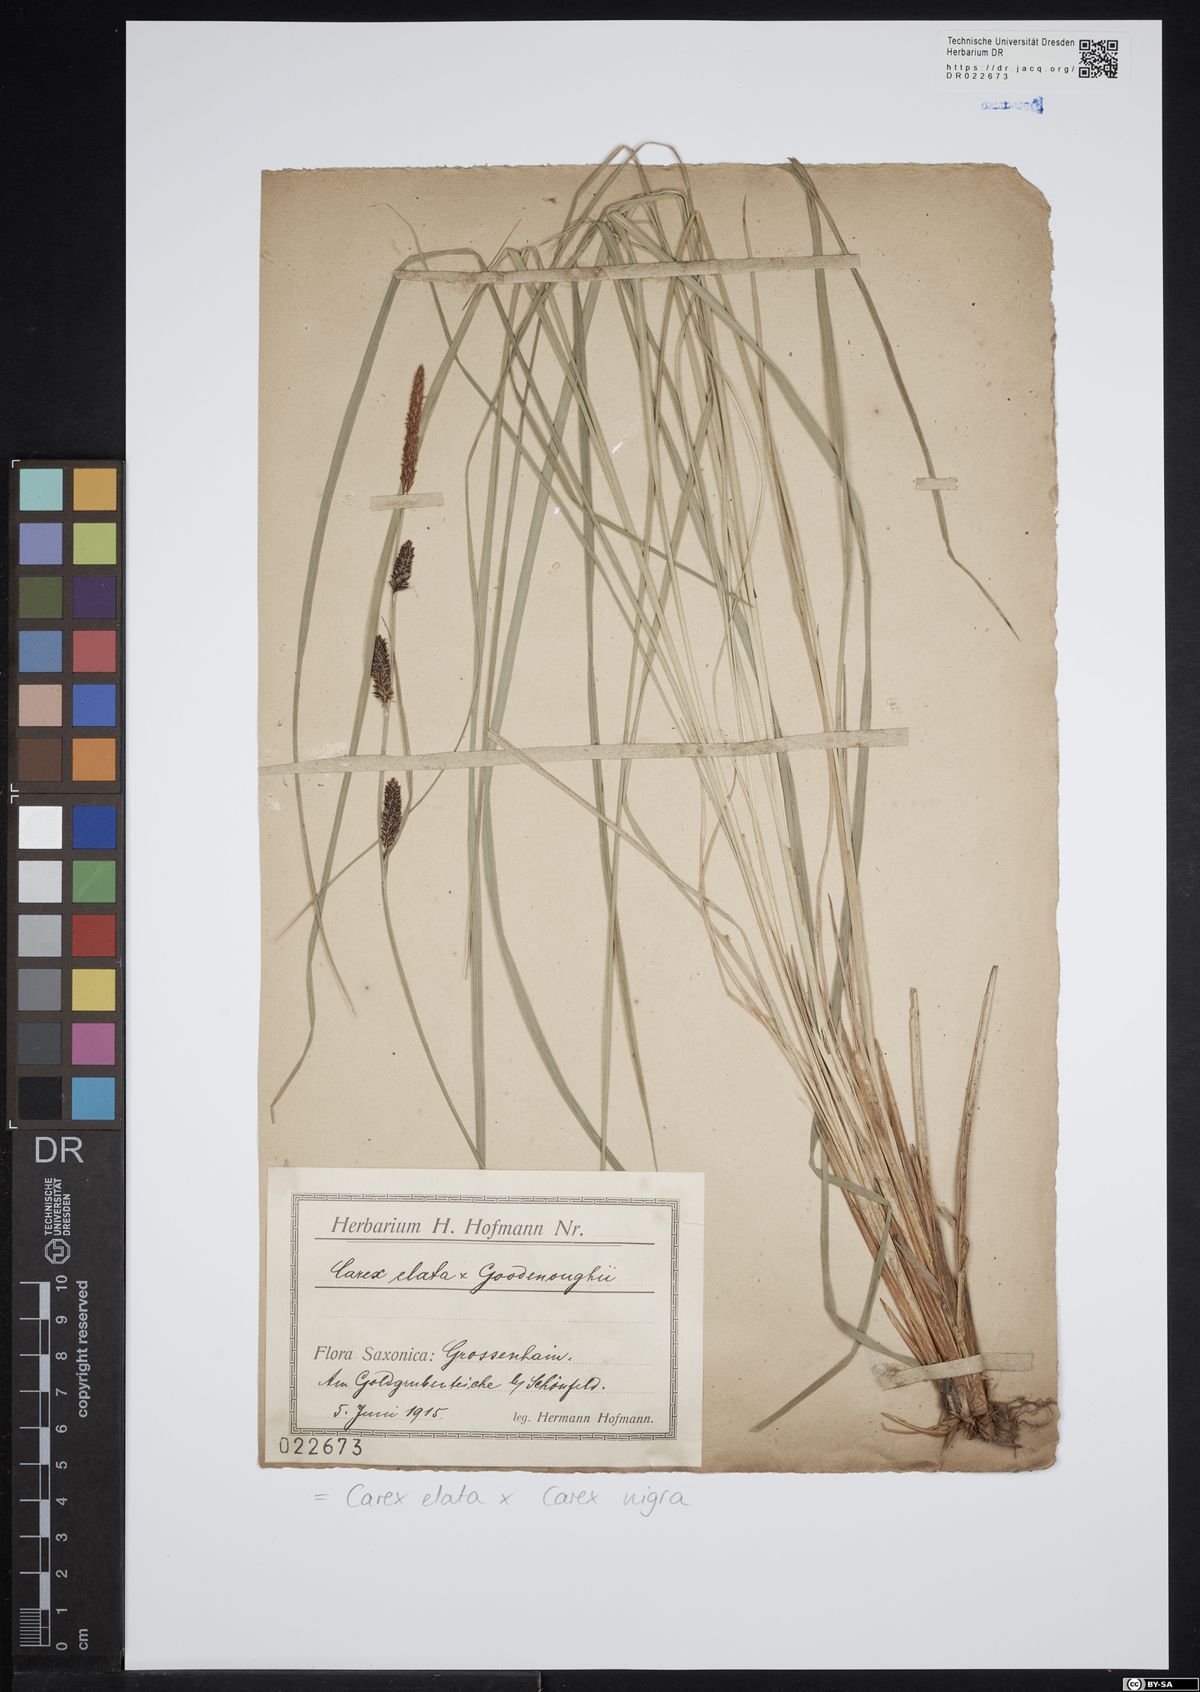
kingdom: Plantae
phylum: Tracheophyta
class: Liliopsida
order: Poales
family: Cyperaceae
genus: Carex
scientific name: Carex turfosa
